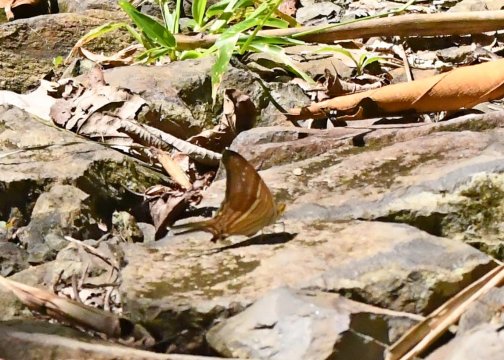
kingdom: Animalia
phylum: Arthropoda
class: Insecta
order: Lepidoptera
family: Nymphalidae
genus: Marpesia
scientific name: Marpesia marcella
